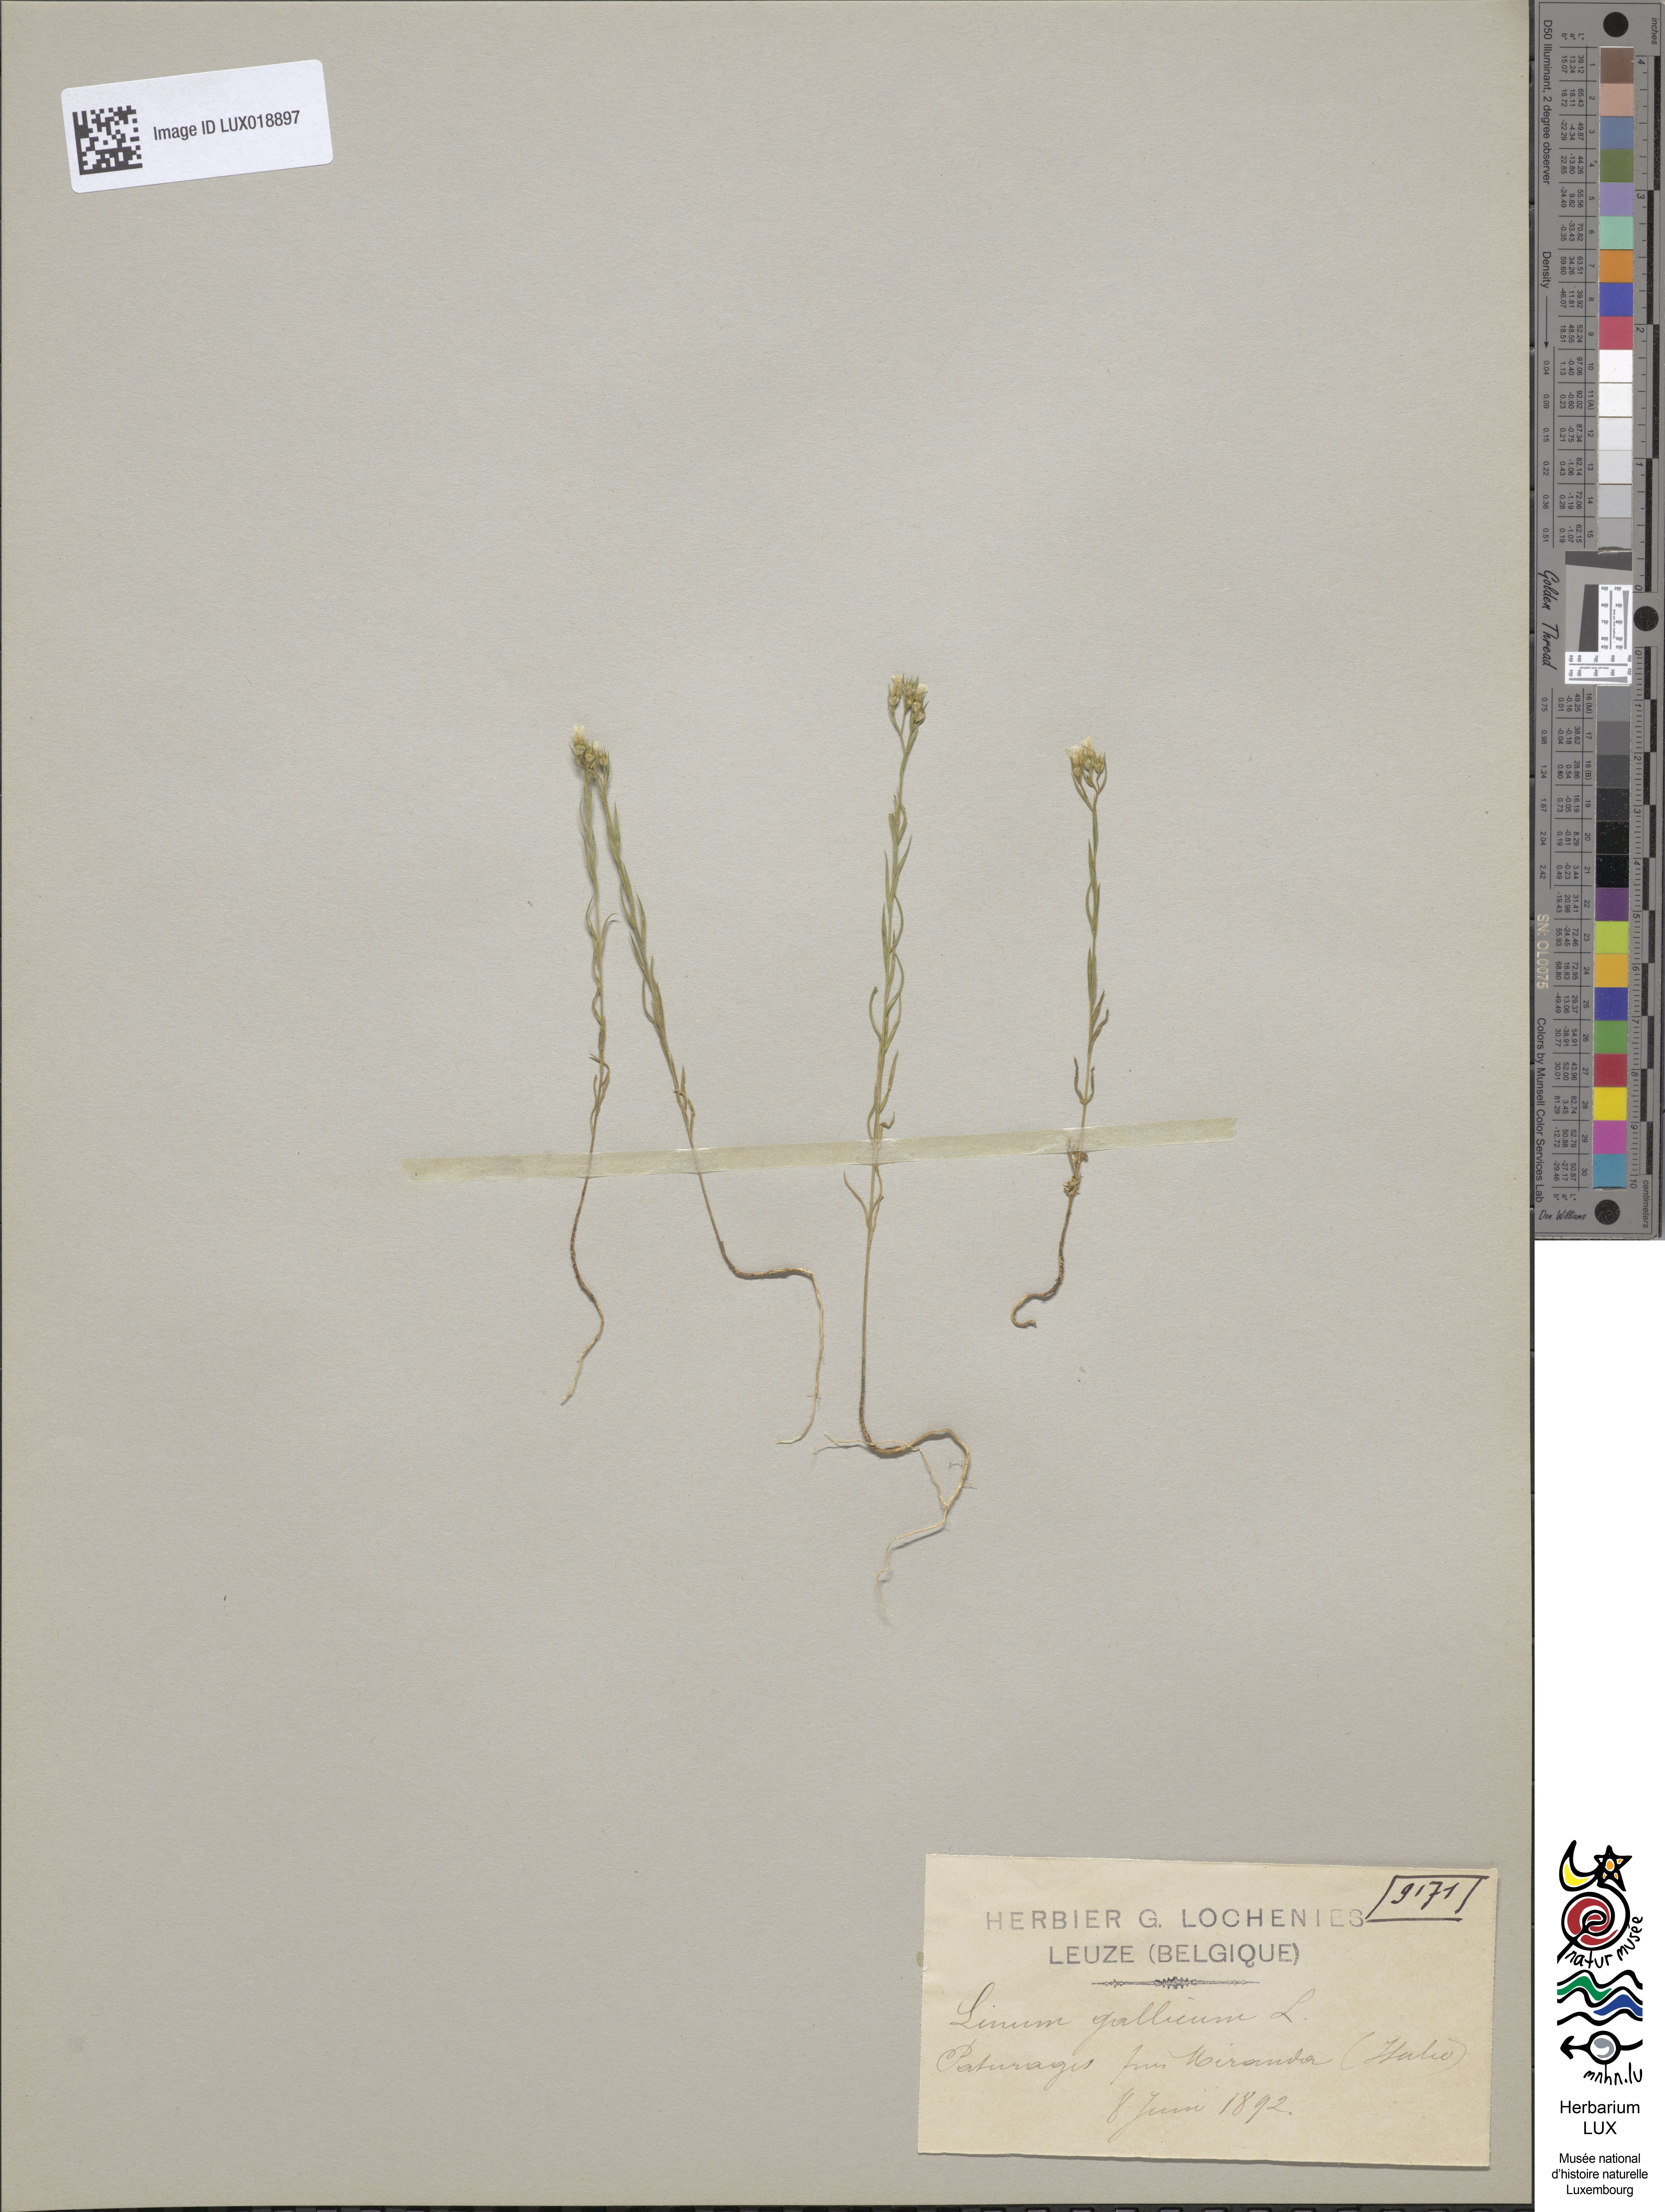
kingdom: Plantae
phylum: Tracheophyta
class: Magnoliopsida
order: Malpighiales
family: Linaceae
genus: Linum
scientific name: Linum trigynum
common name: French flax
